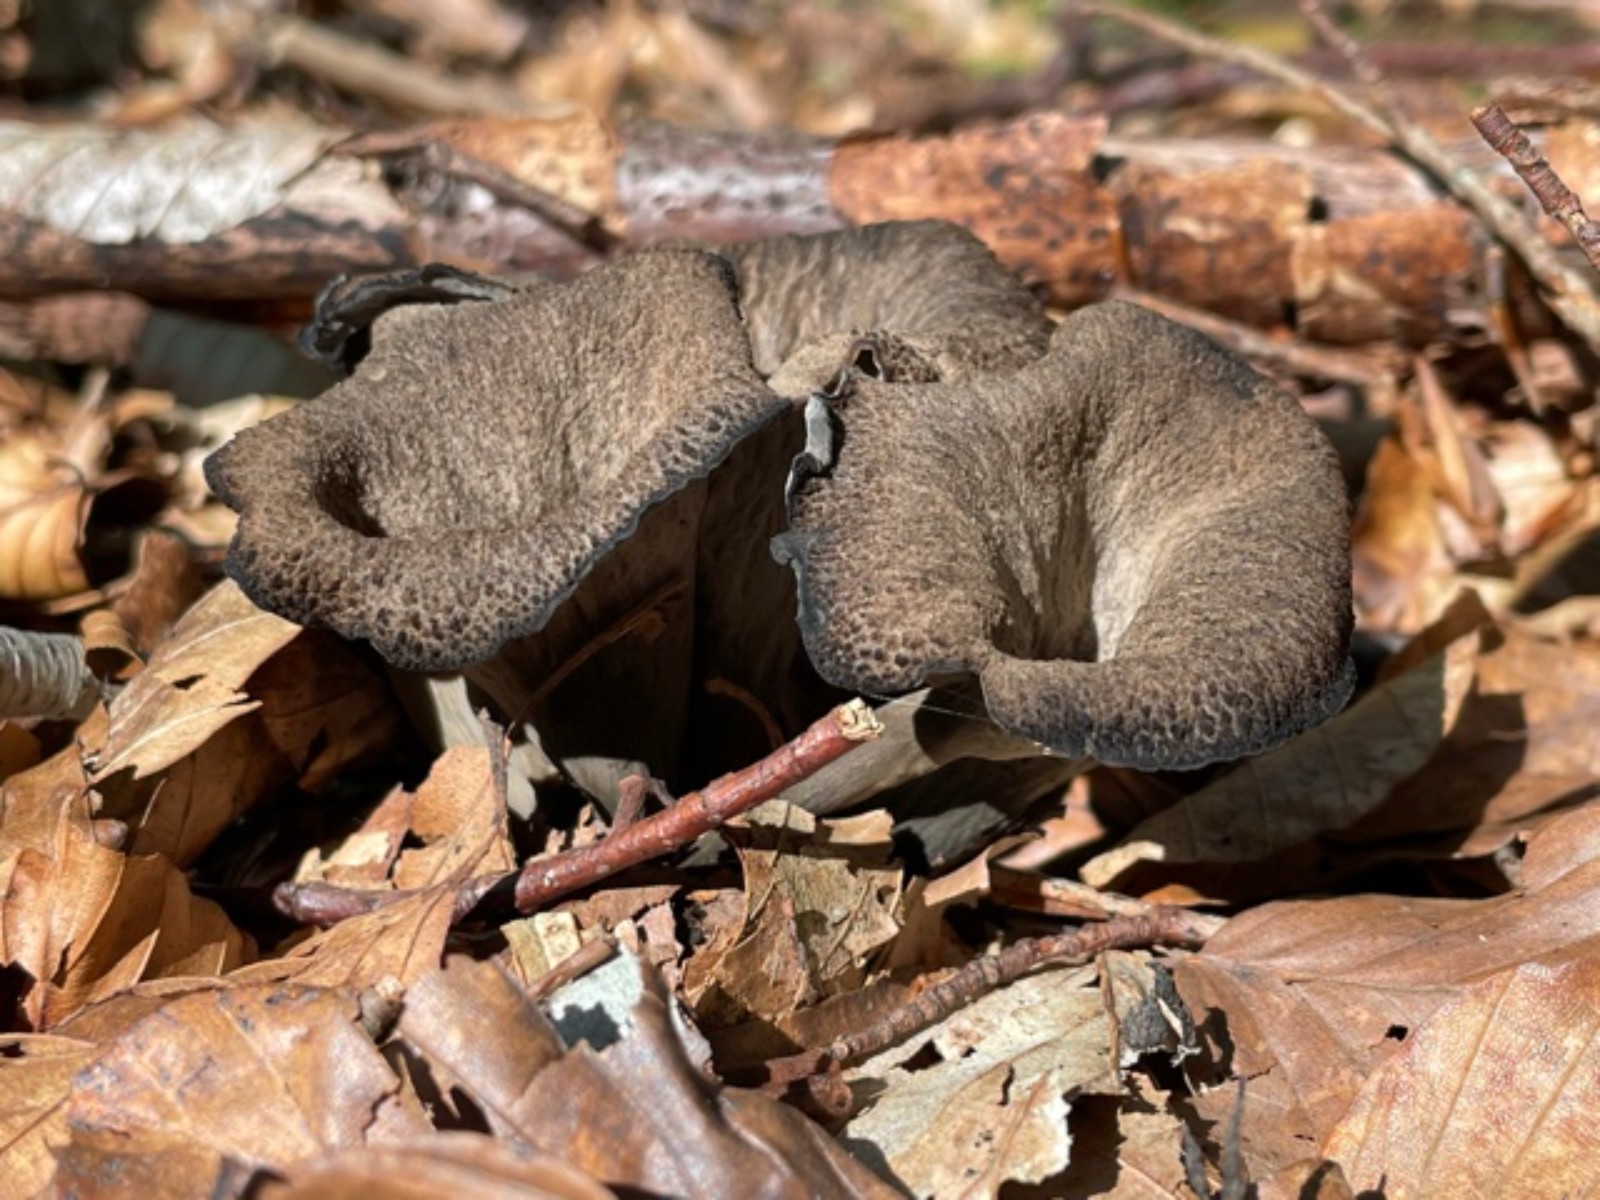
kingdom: Fungi
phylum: Basidiomycota
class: Agaricomycetes
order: Cantharellales
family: Hydnaceae
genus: Craterellus
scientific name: Craterellus cornucopioides
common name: trompetsvamp
